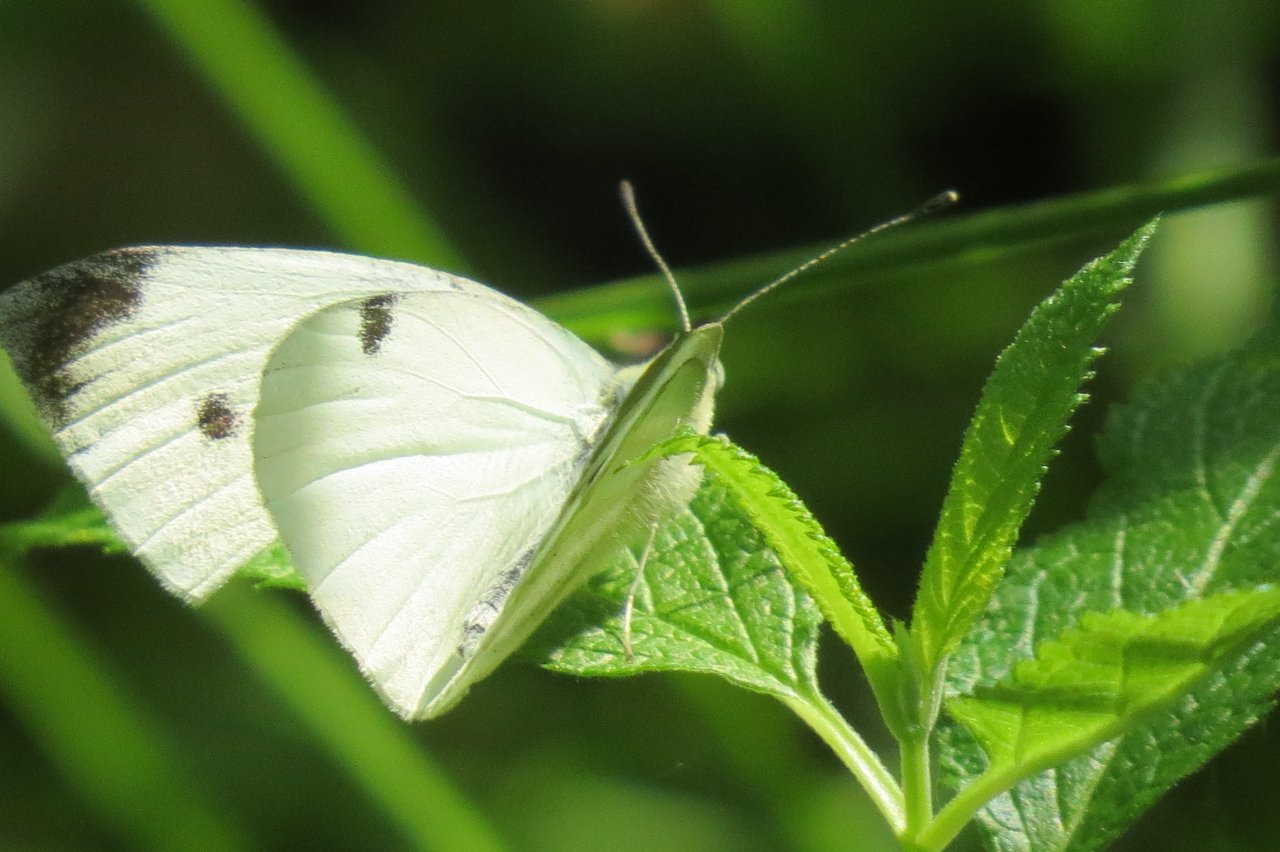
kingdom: Animalia
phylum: Arthropoda
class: Insecta
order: Lepidoptera
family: Pieridae
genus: Pieris
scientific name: Pieris rapae
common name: Cabbage White
